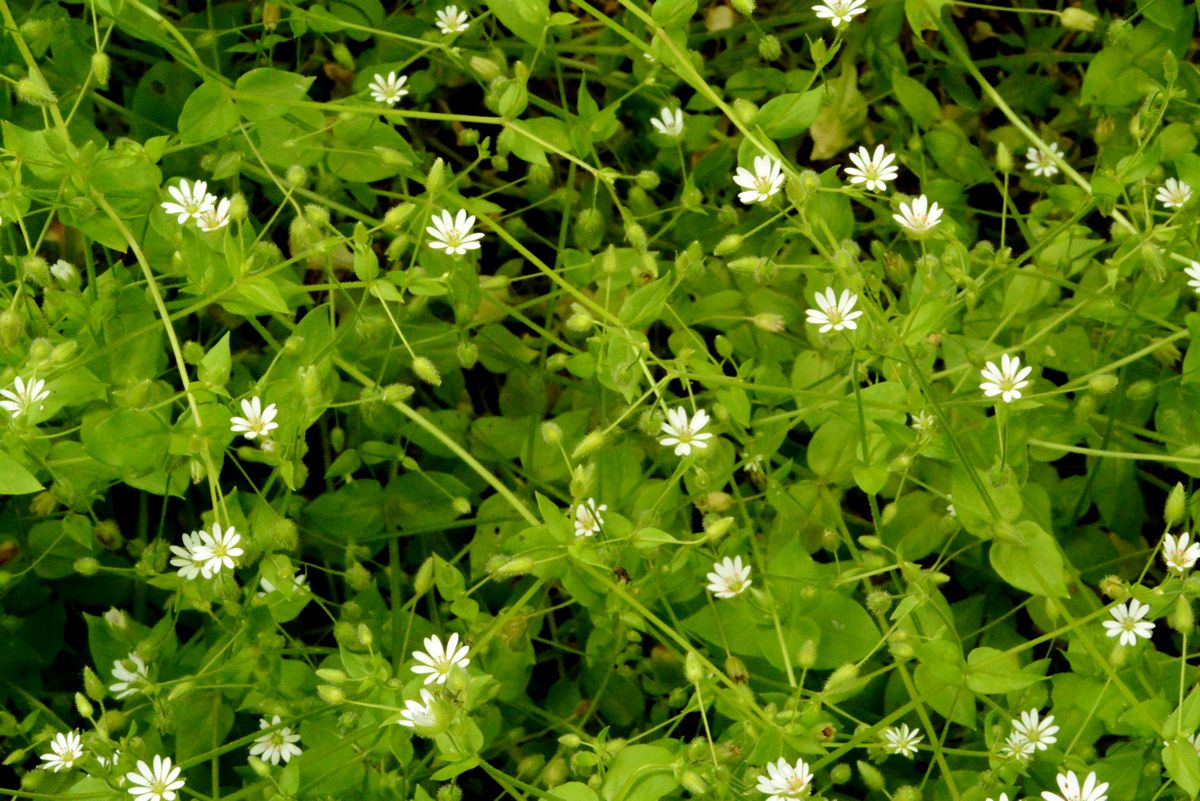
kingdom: Plantae
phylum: Tracheophyta
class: Magnoliopsida
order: Caryophyllales
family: Caryophyllaceae
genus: Stellaria
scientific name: Stellaria media
